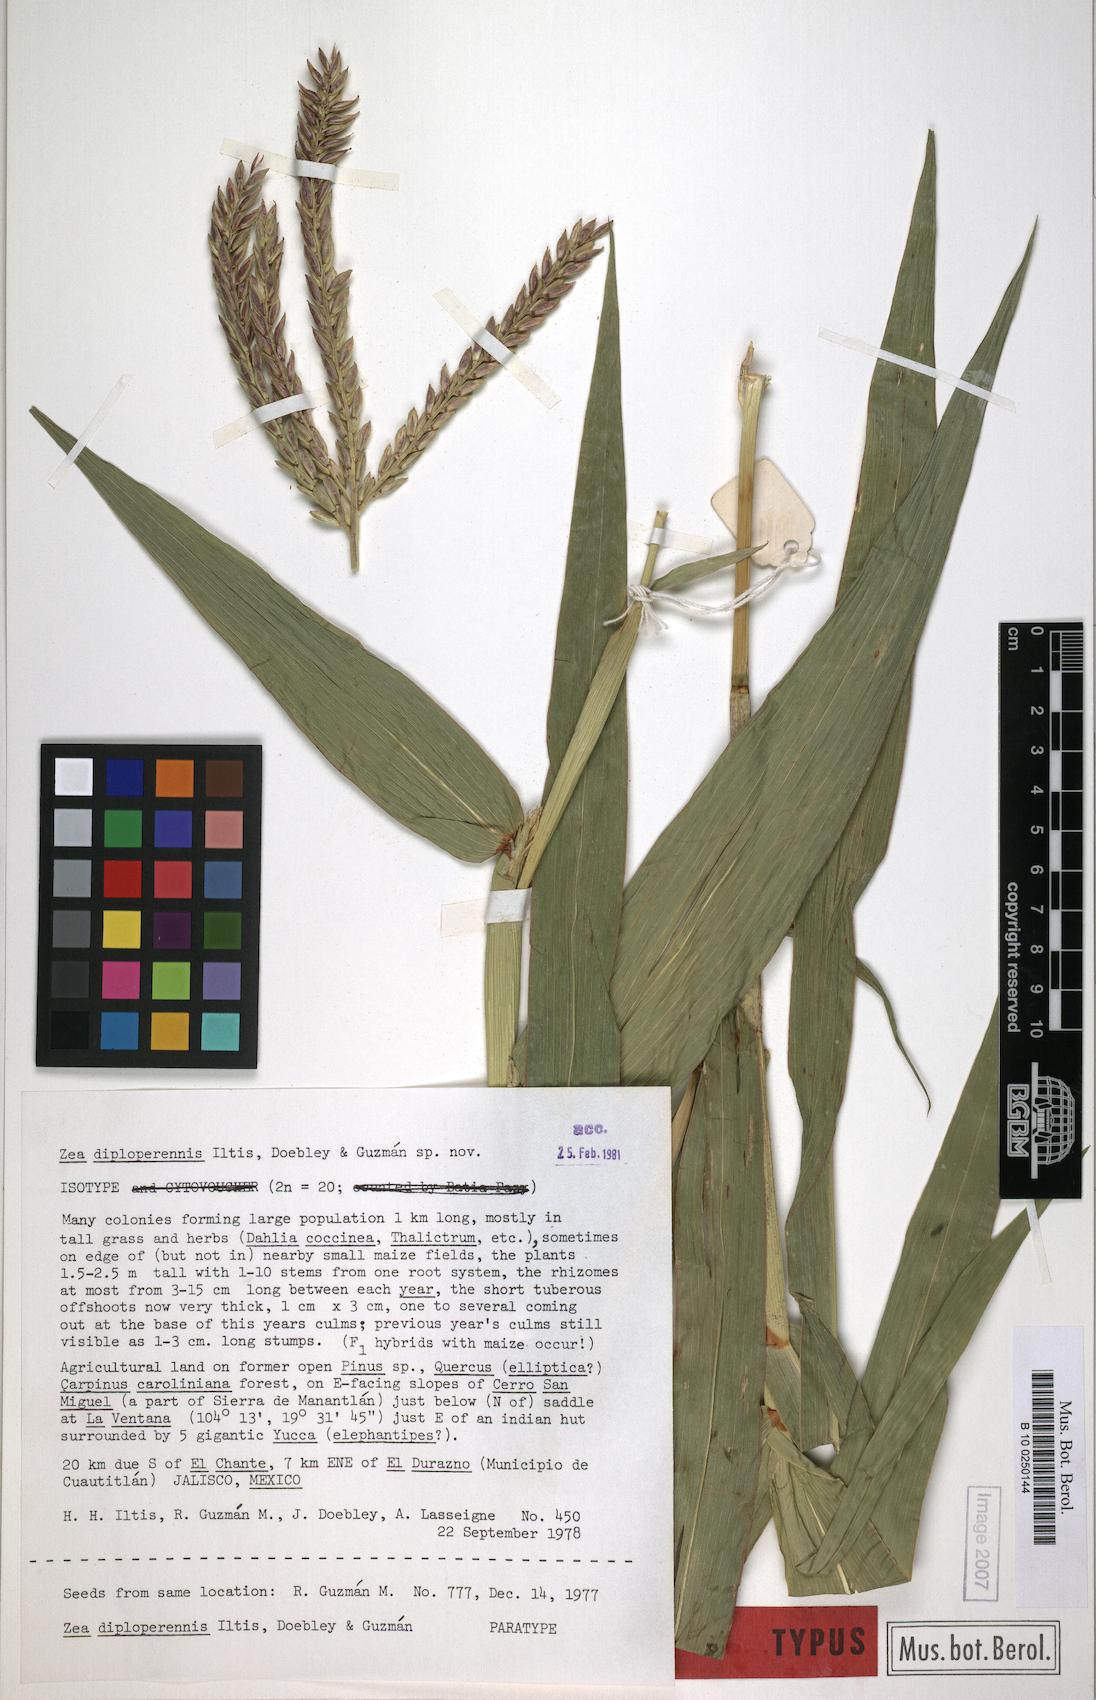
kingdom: Plantae
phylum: Tracheophyta
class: Liliopsida
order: Poales
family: Poaceae
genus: Zea
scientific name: Zea diploperennis
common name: Diploperennial teosinte
